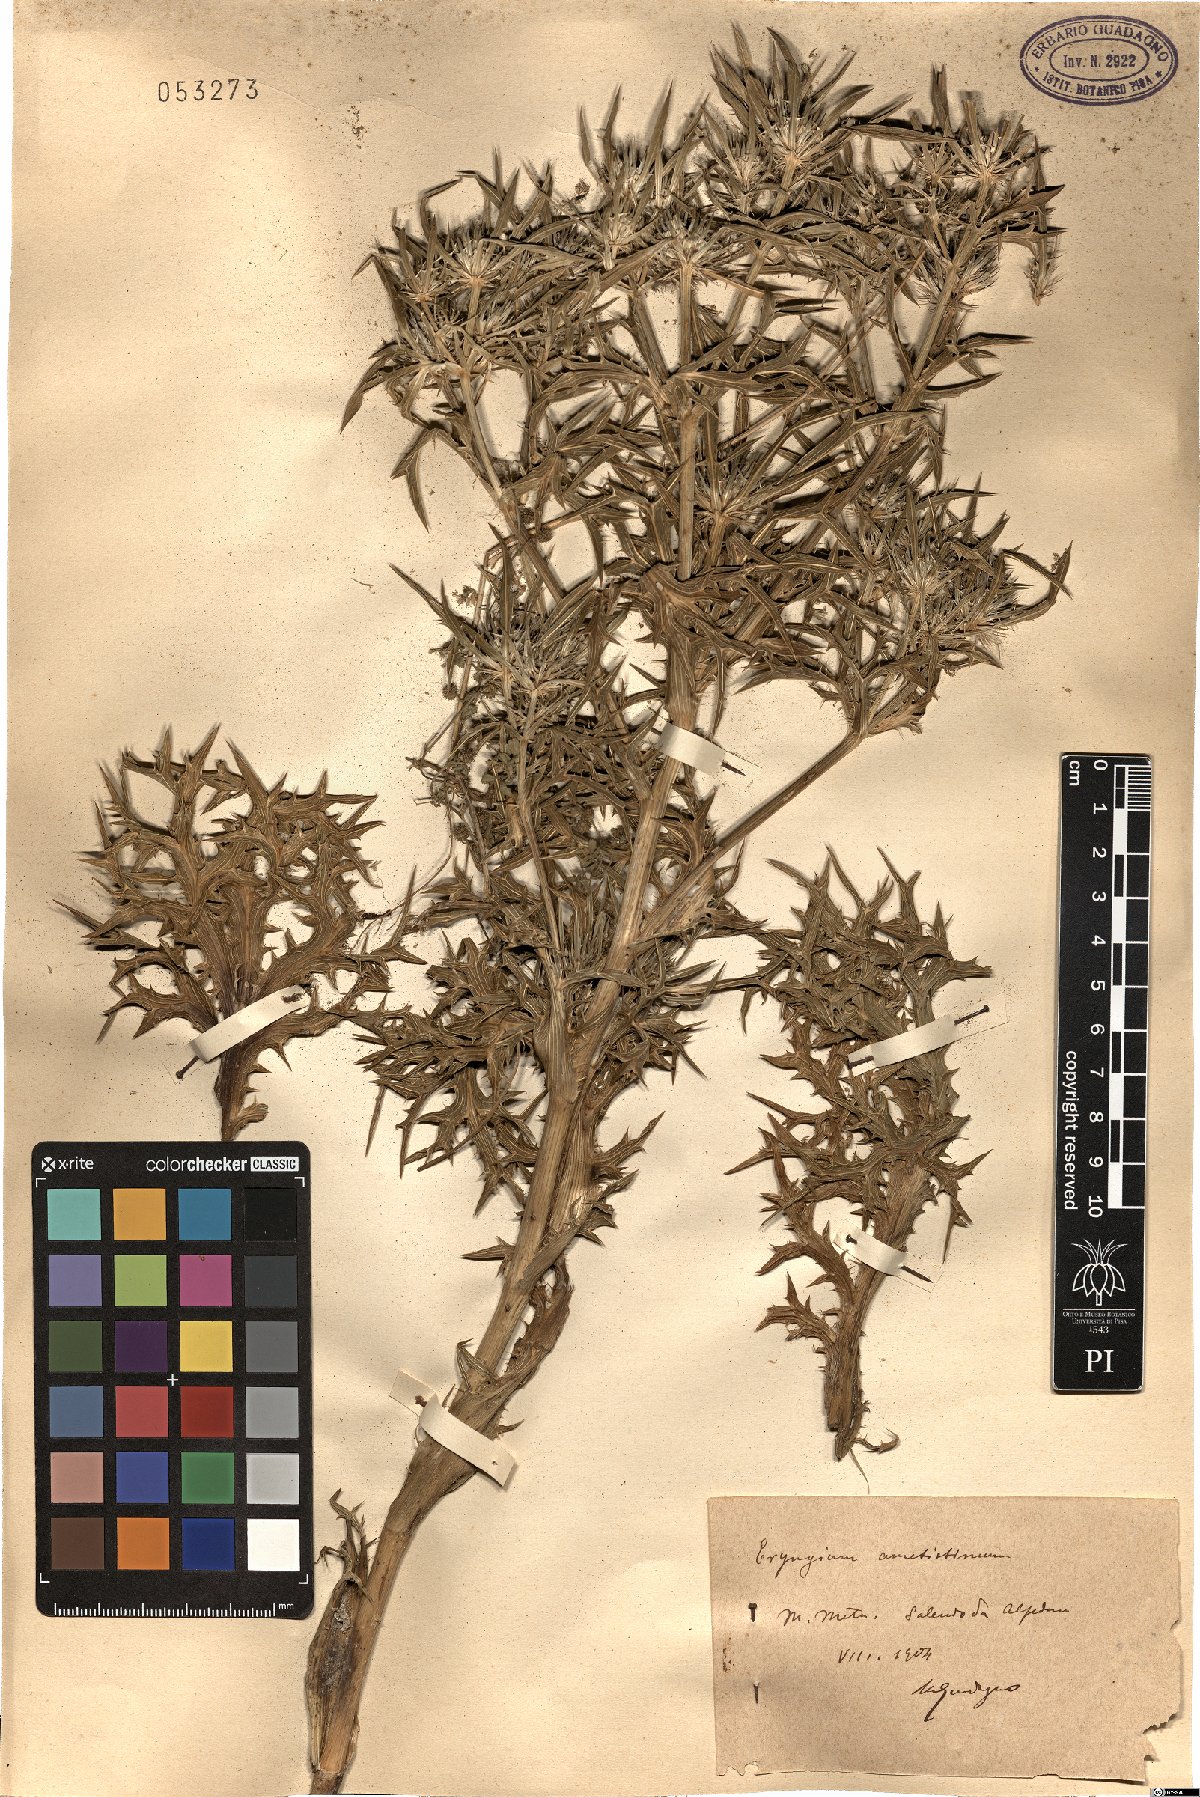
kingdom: Plantae
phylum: Tracheophyta
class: Magnoliopsida
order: Apiales
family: Apiaceae
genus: Eryngium
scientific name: Eryngium amethystinum
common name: Amethyst eryngo
